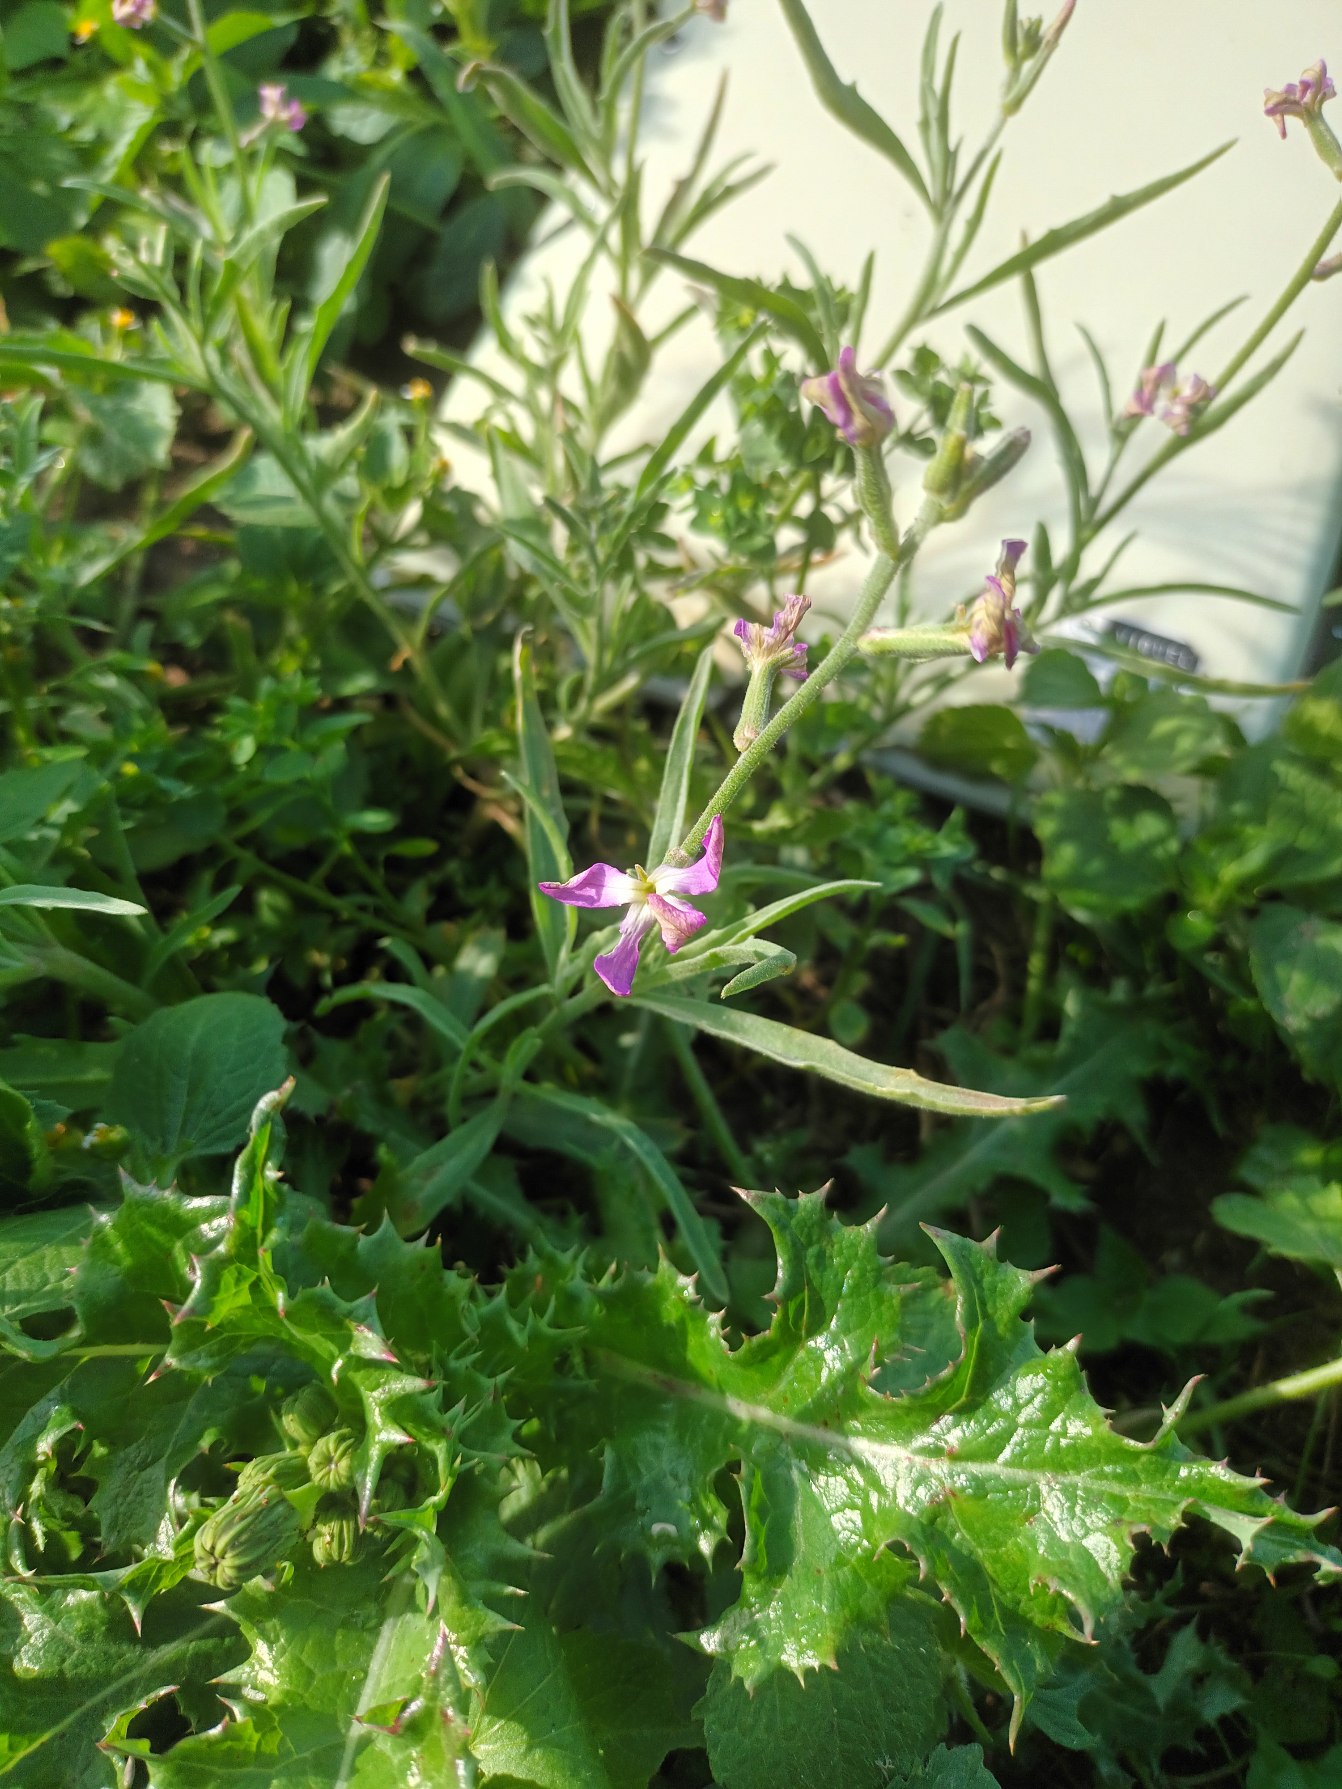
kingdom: Plantae
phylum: Tracheophyta
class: Magnoliopsida
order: Brassicales
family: Brassicaceae
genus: Matthiola
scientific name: Matthiola longipetala
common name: Natlevkøj
